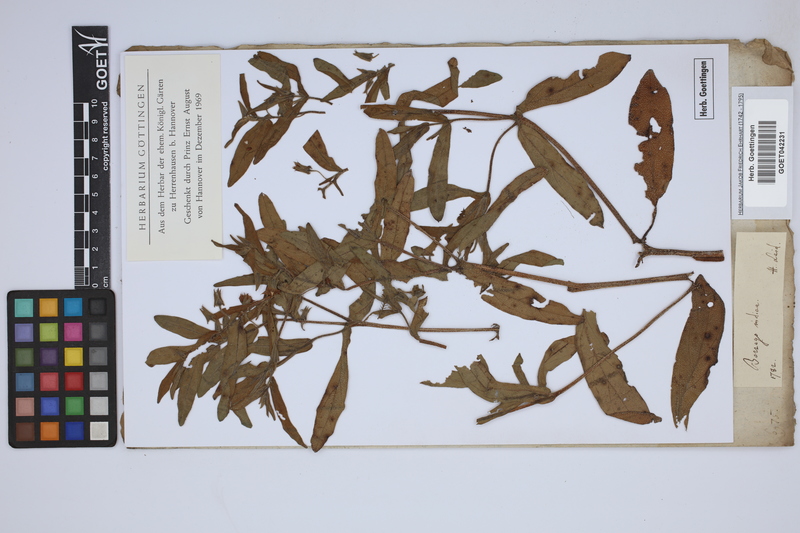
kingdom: Plantae
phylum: Tracheophyta
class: Magnoliopsida
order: Boraginales
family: Boraginaceae
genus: Trichodesma
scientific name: Trichodesma indicum
